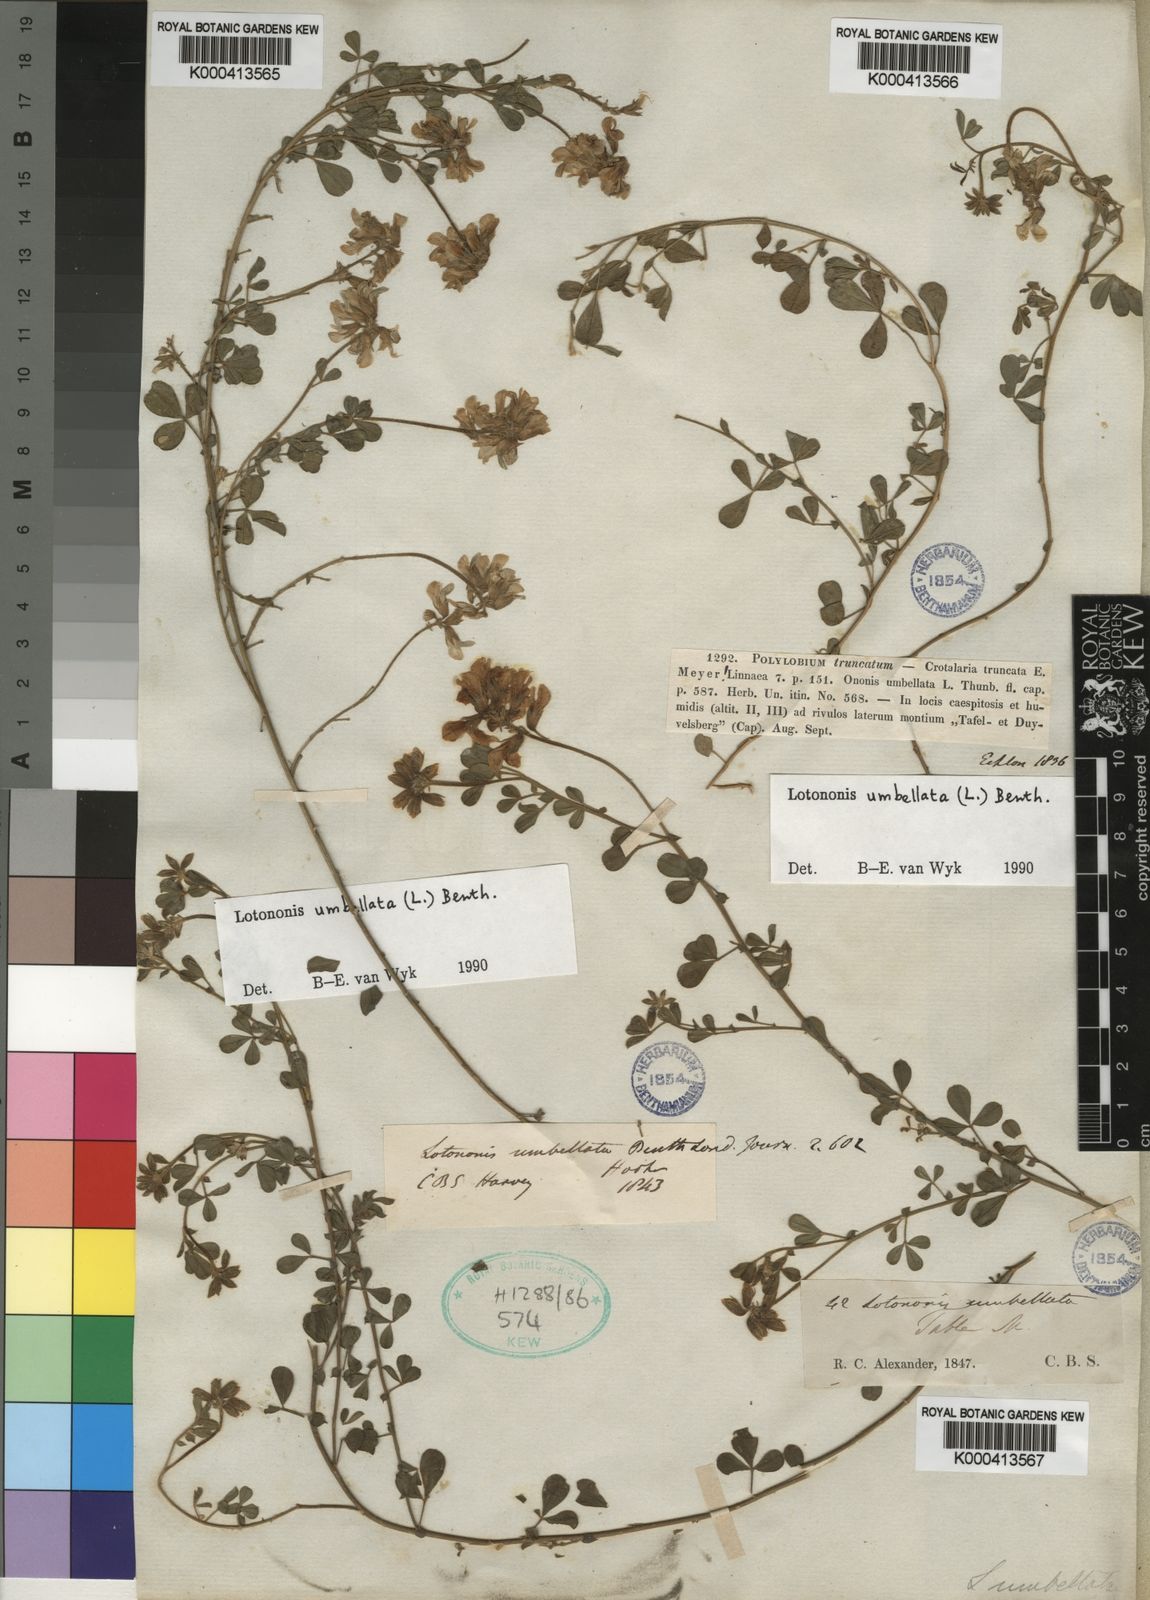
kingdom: Plantae
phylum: Tracheophyta
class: Magnoliopsida
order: Fabales
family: Fabaceae
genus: Lotononis
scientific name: Lotononis umbellata
